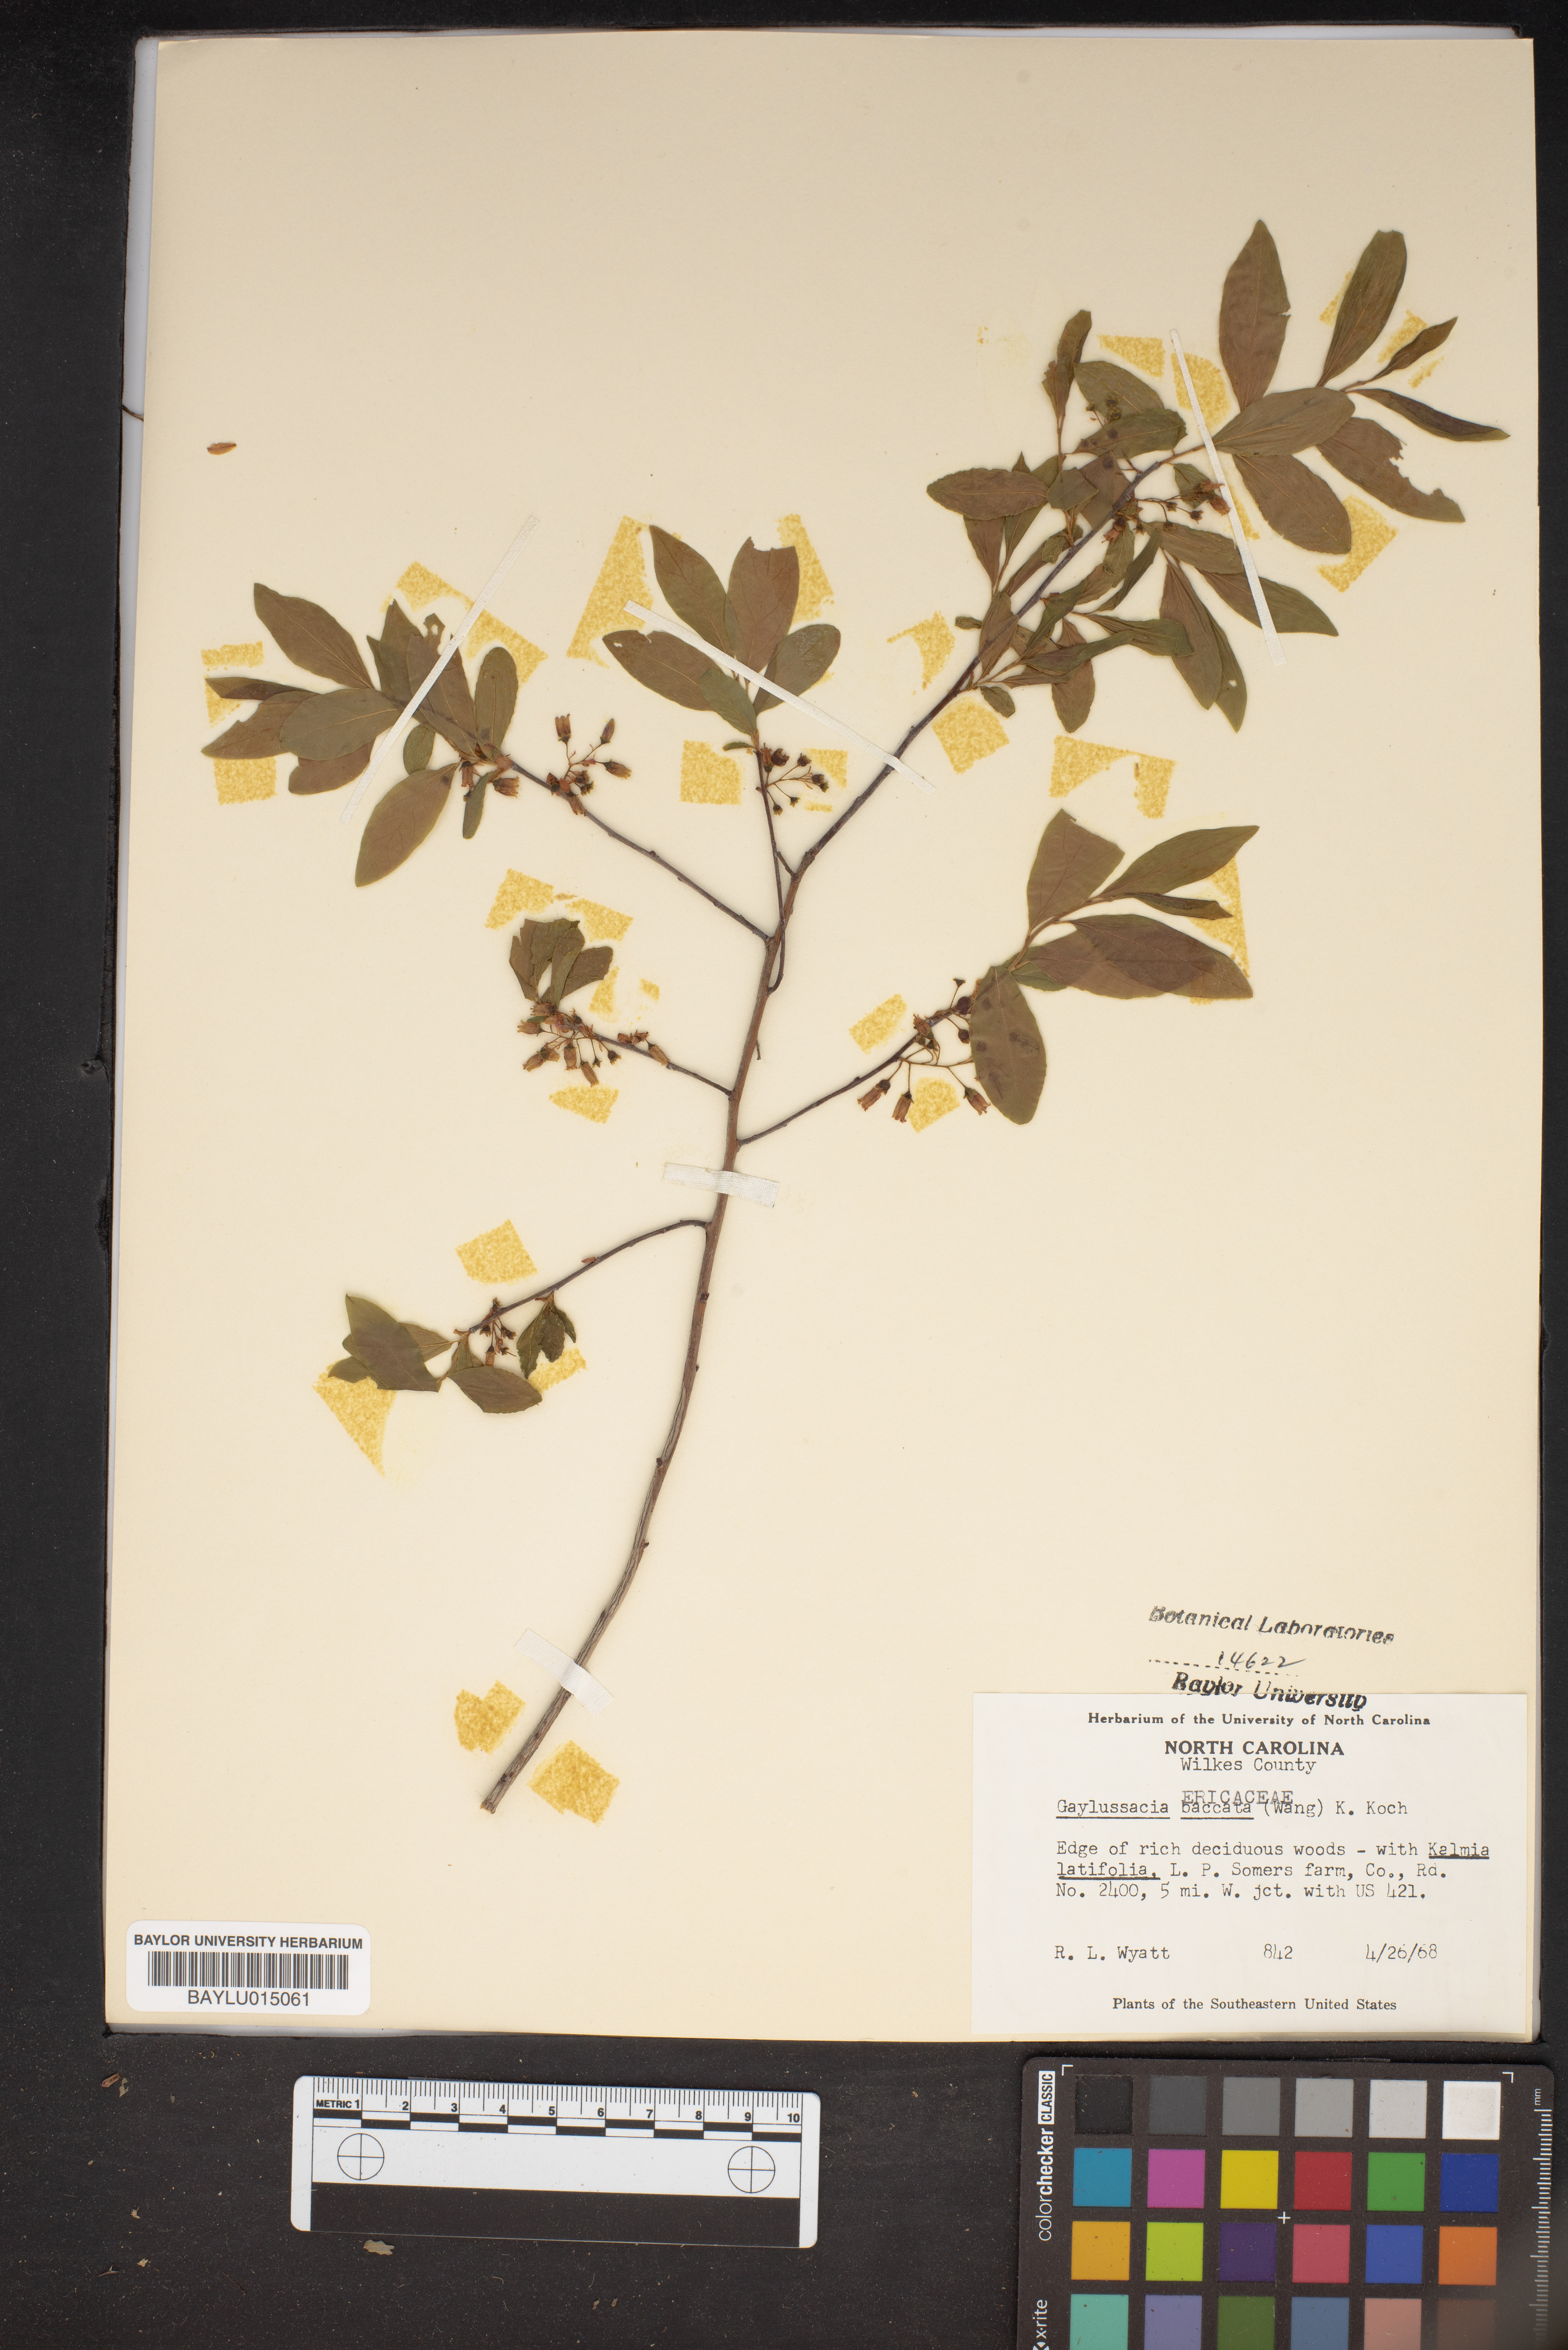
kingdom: Plantae
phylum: Tracheophyta
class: Magnoliopsida
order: Ericales
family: Ericaceae
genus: Gaylussacia
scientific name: Gaylussacia baccata
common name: Black huckleberry
